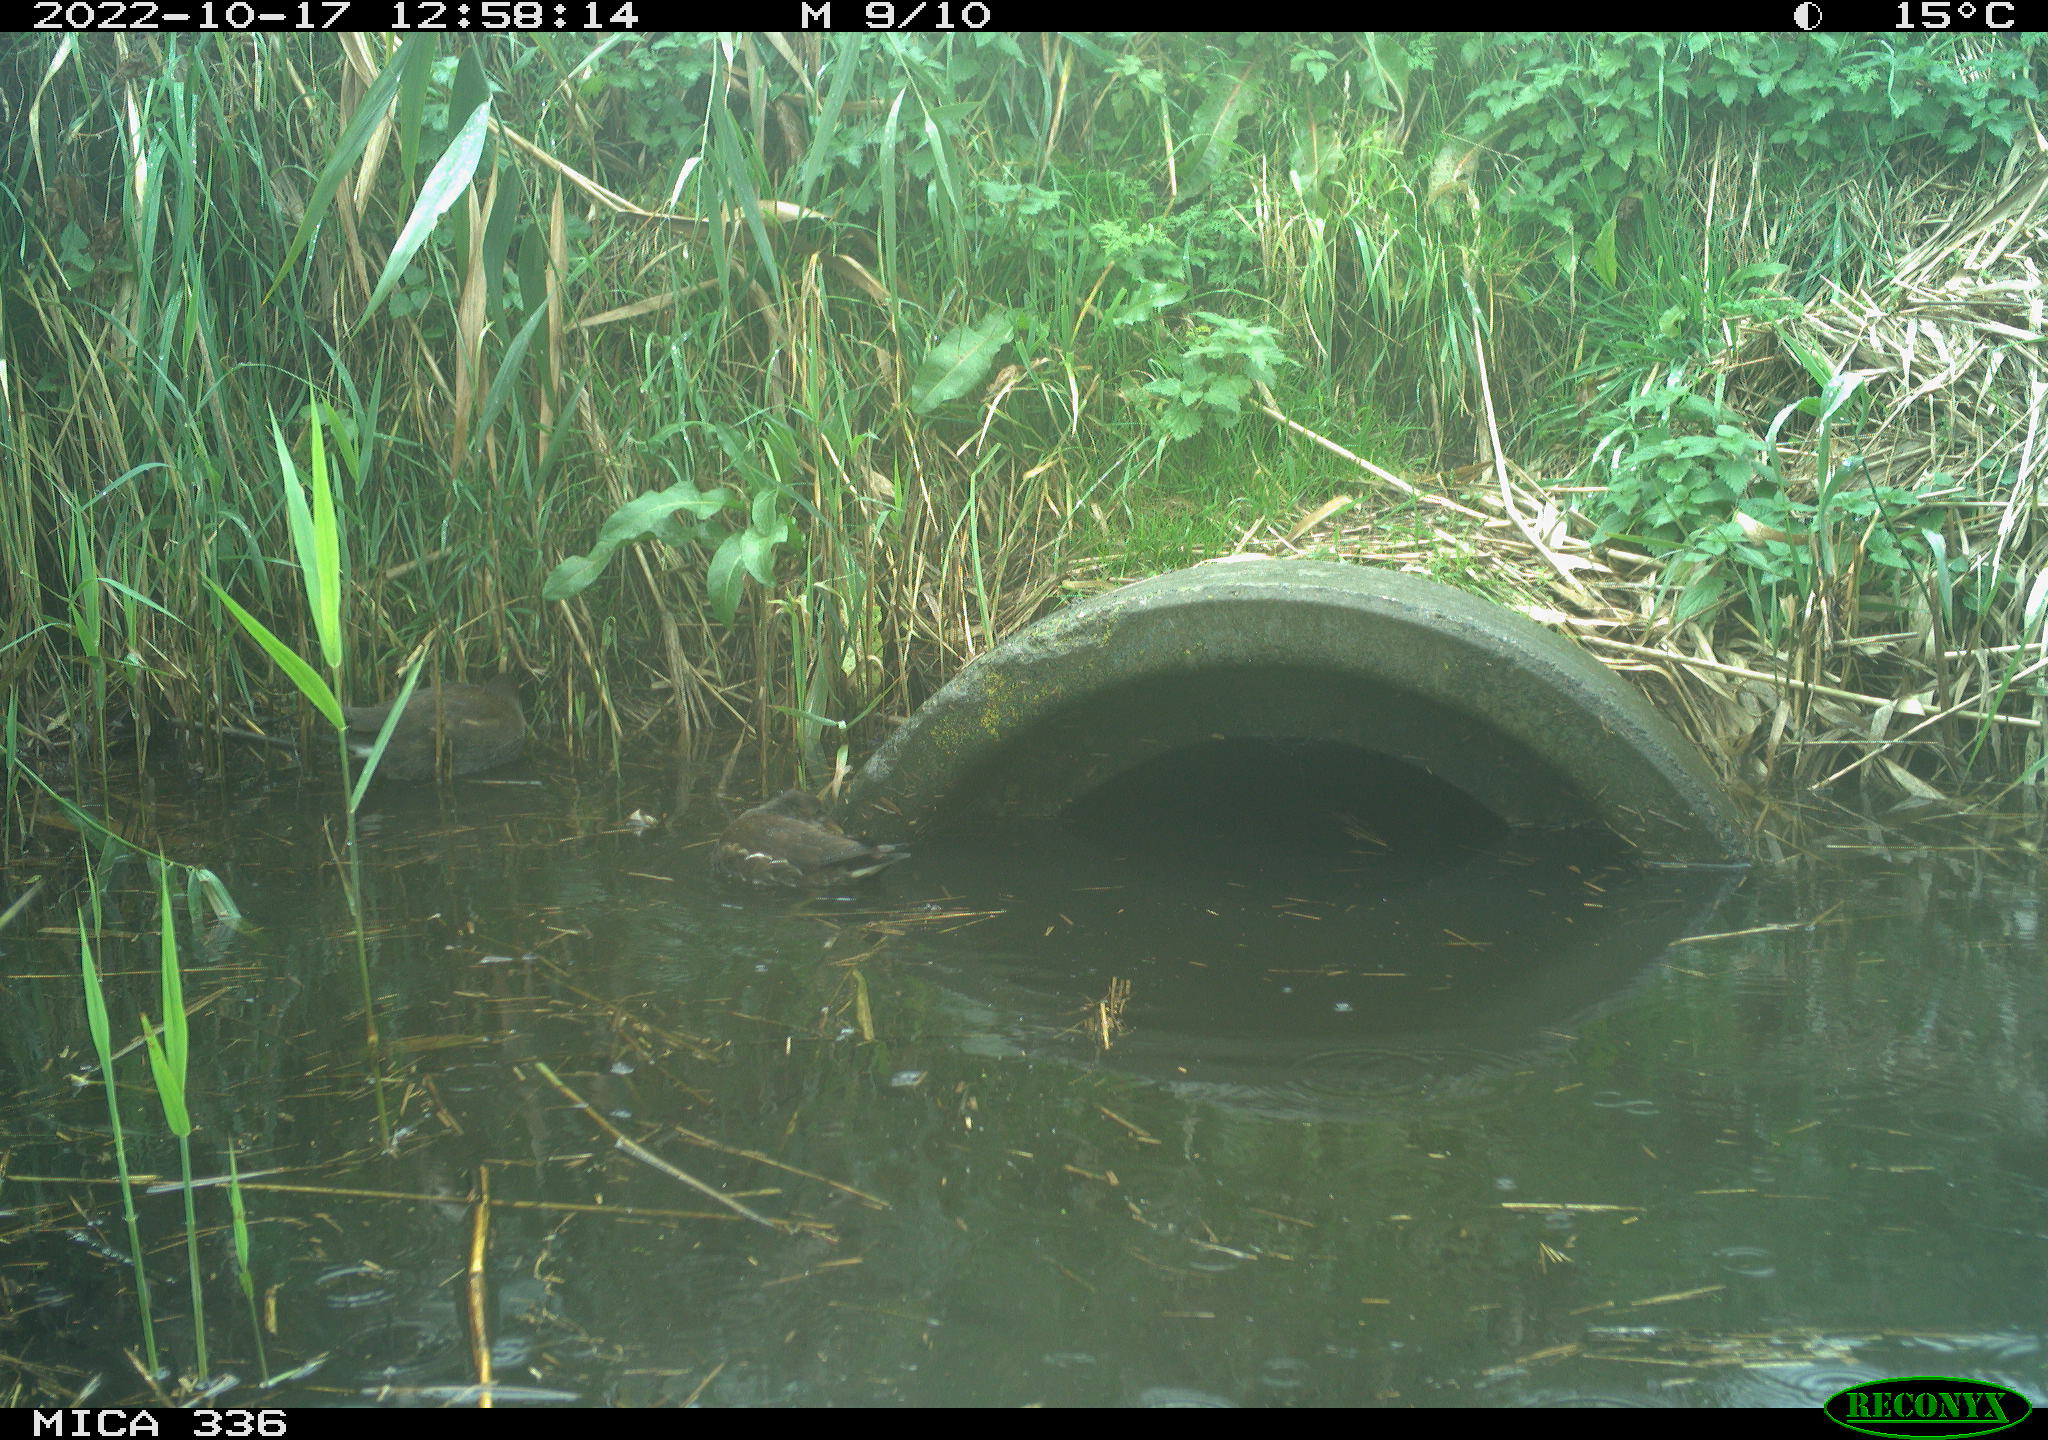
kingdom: Animalia
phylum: Chordata
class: Aves
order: Gruiformes
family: Rallidae
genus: Gallinula
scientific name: Gallinula chloropus
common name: Common moorhen
